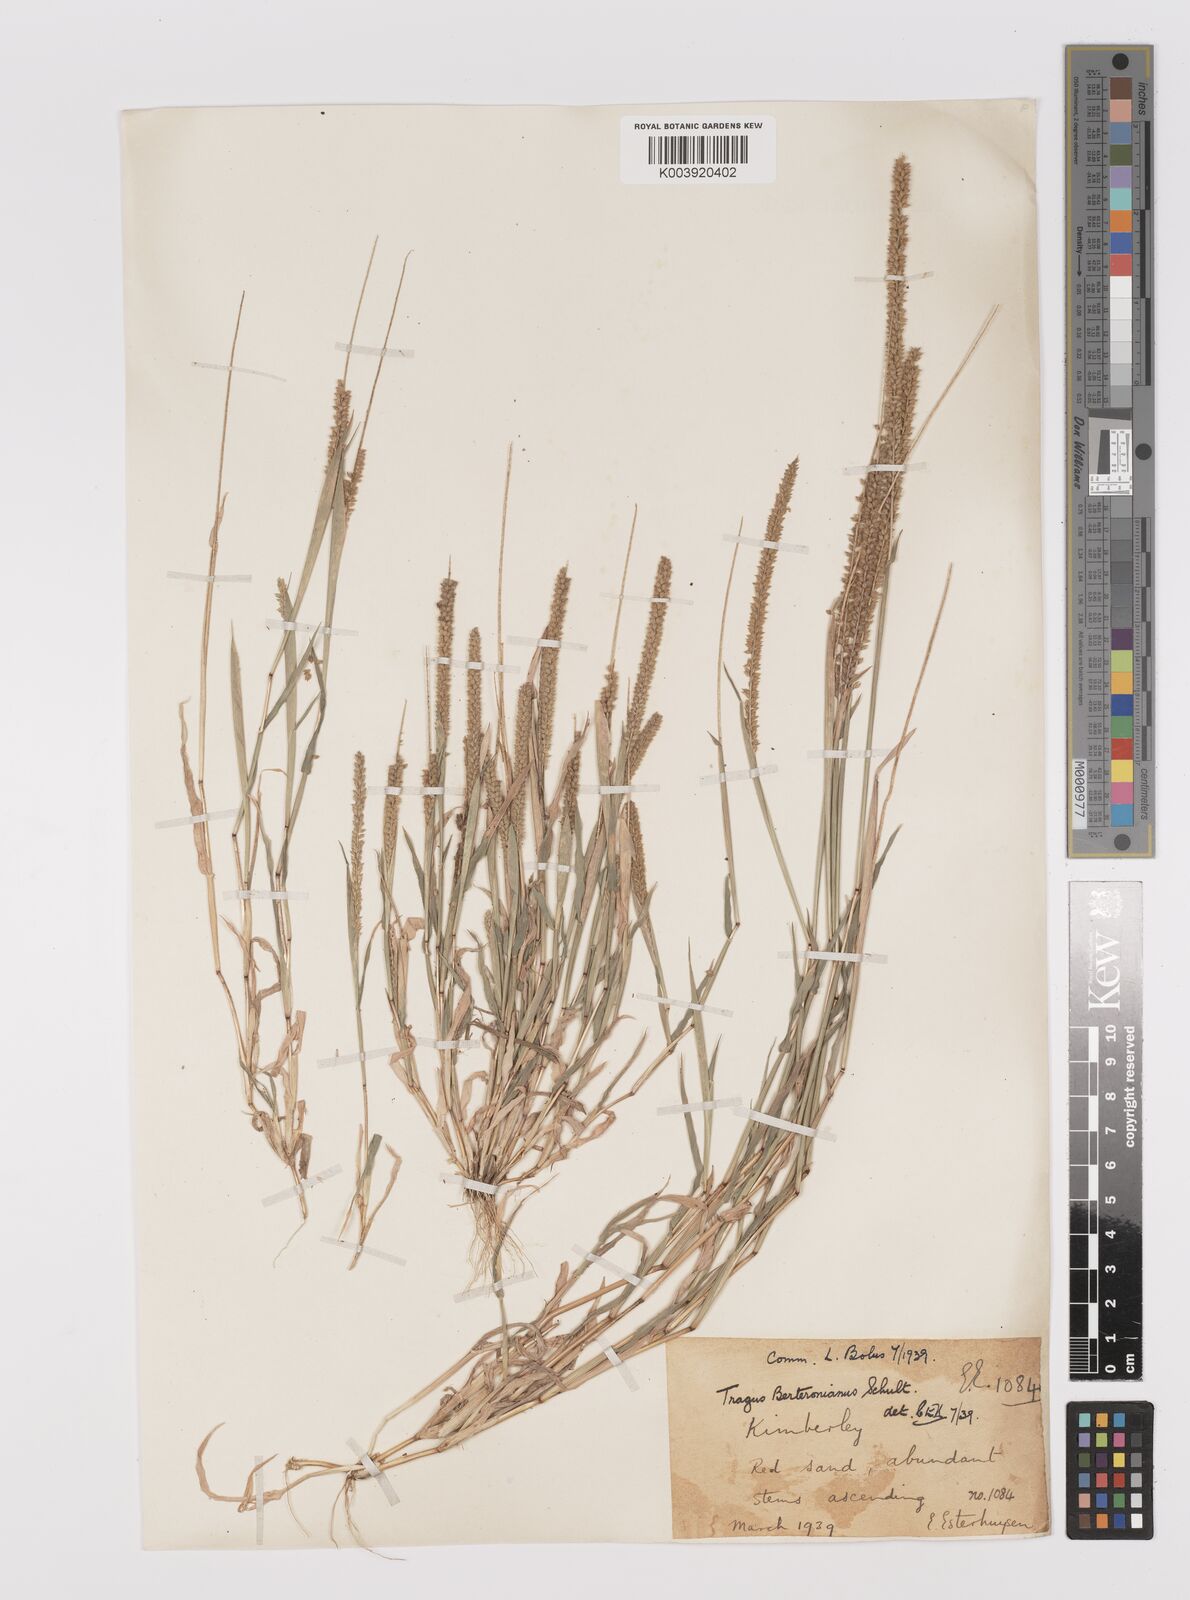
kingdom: Plantae
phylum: Tracheophyta
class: Liliopsida
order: Poales
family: Poaceae
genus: Tragus
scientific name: Tragus berteronianus
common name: African bur-grass
